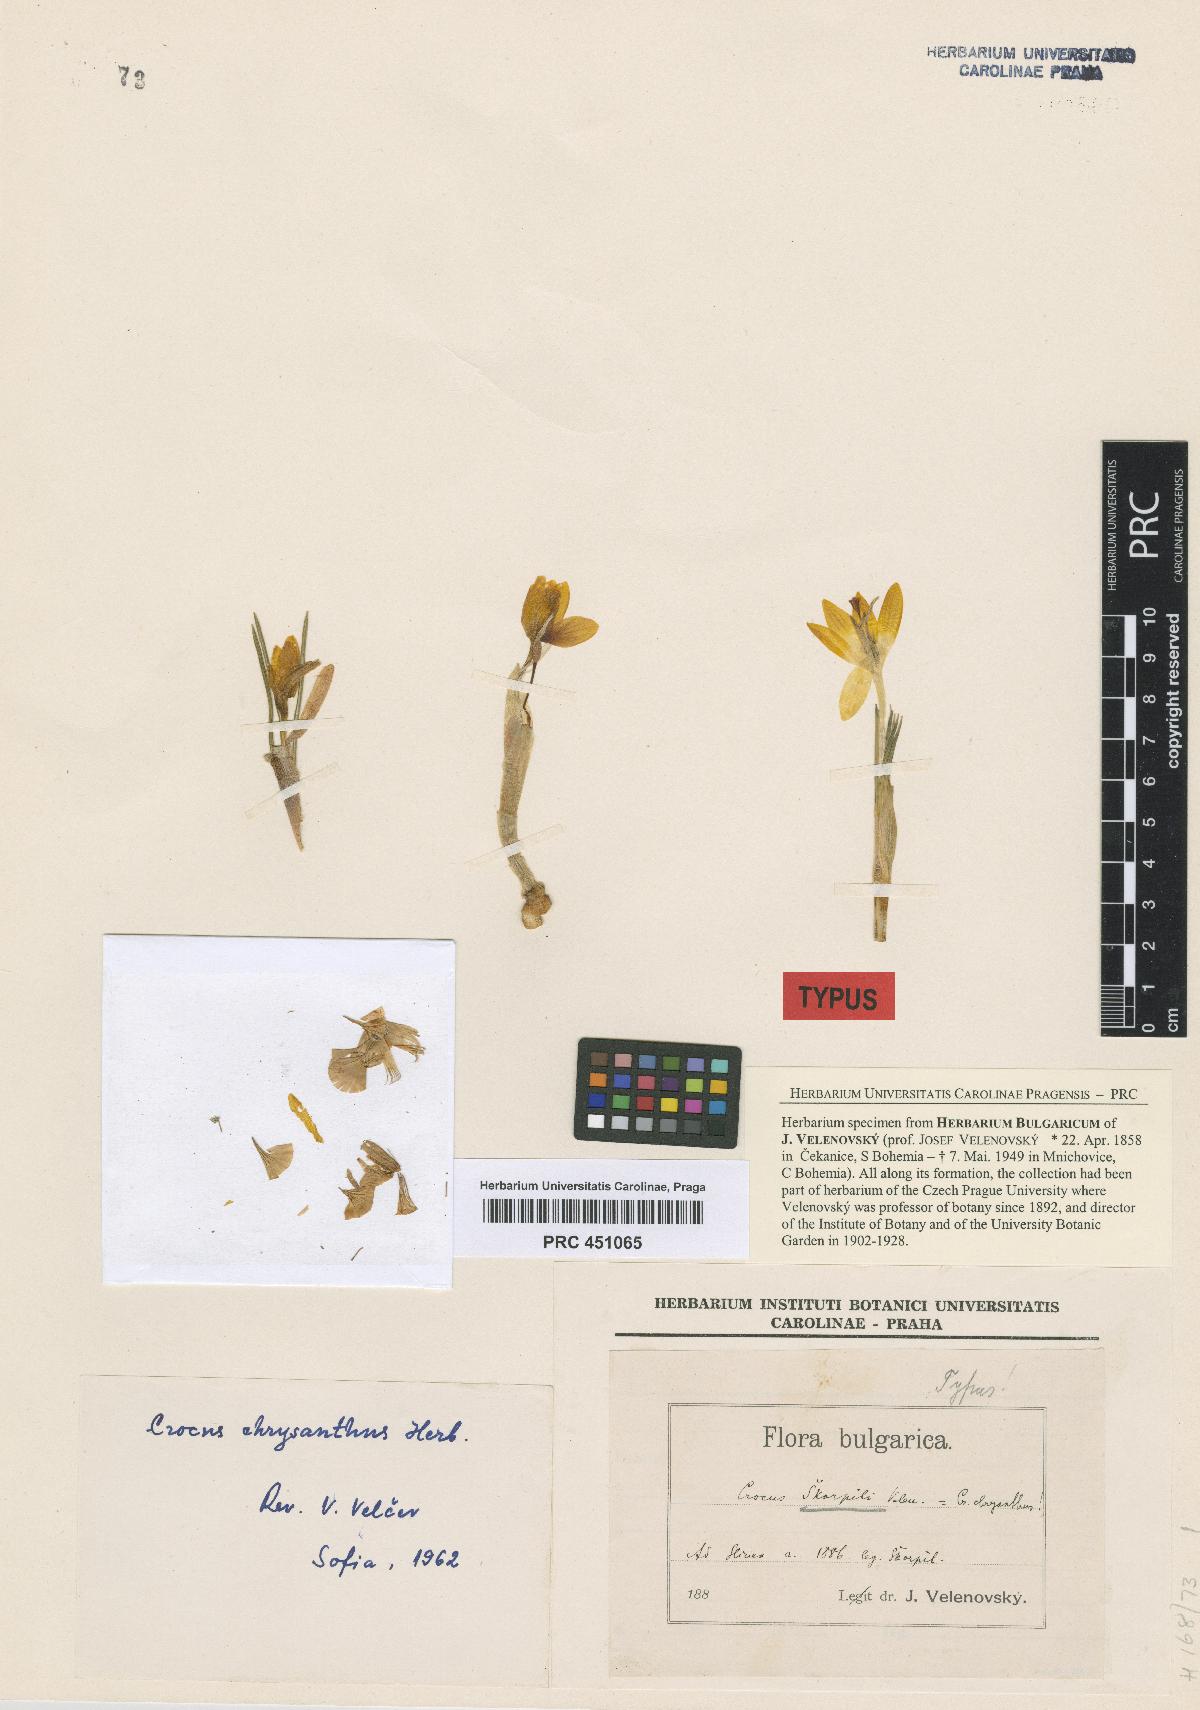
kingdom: Plantae
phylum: Tracheophyta
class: Liliopsida
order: Asparagales
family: Iridaceae
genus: Crocus
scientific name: Crocus chrysanthus
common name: Golden crocus
